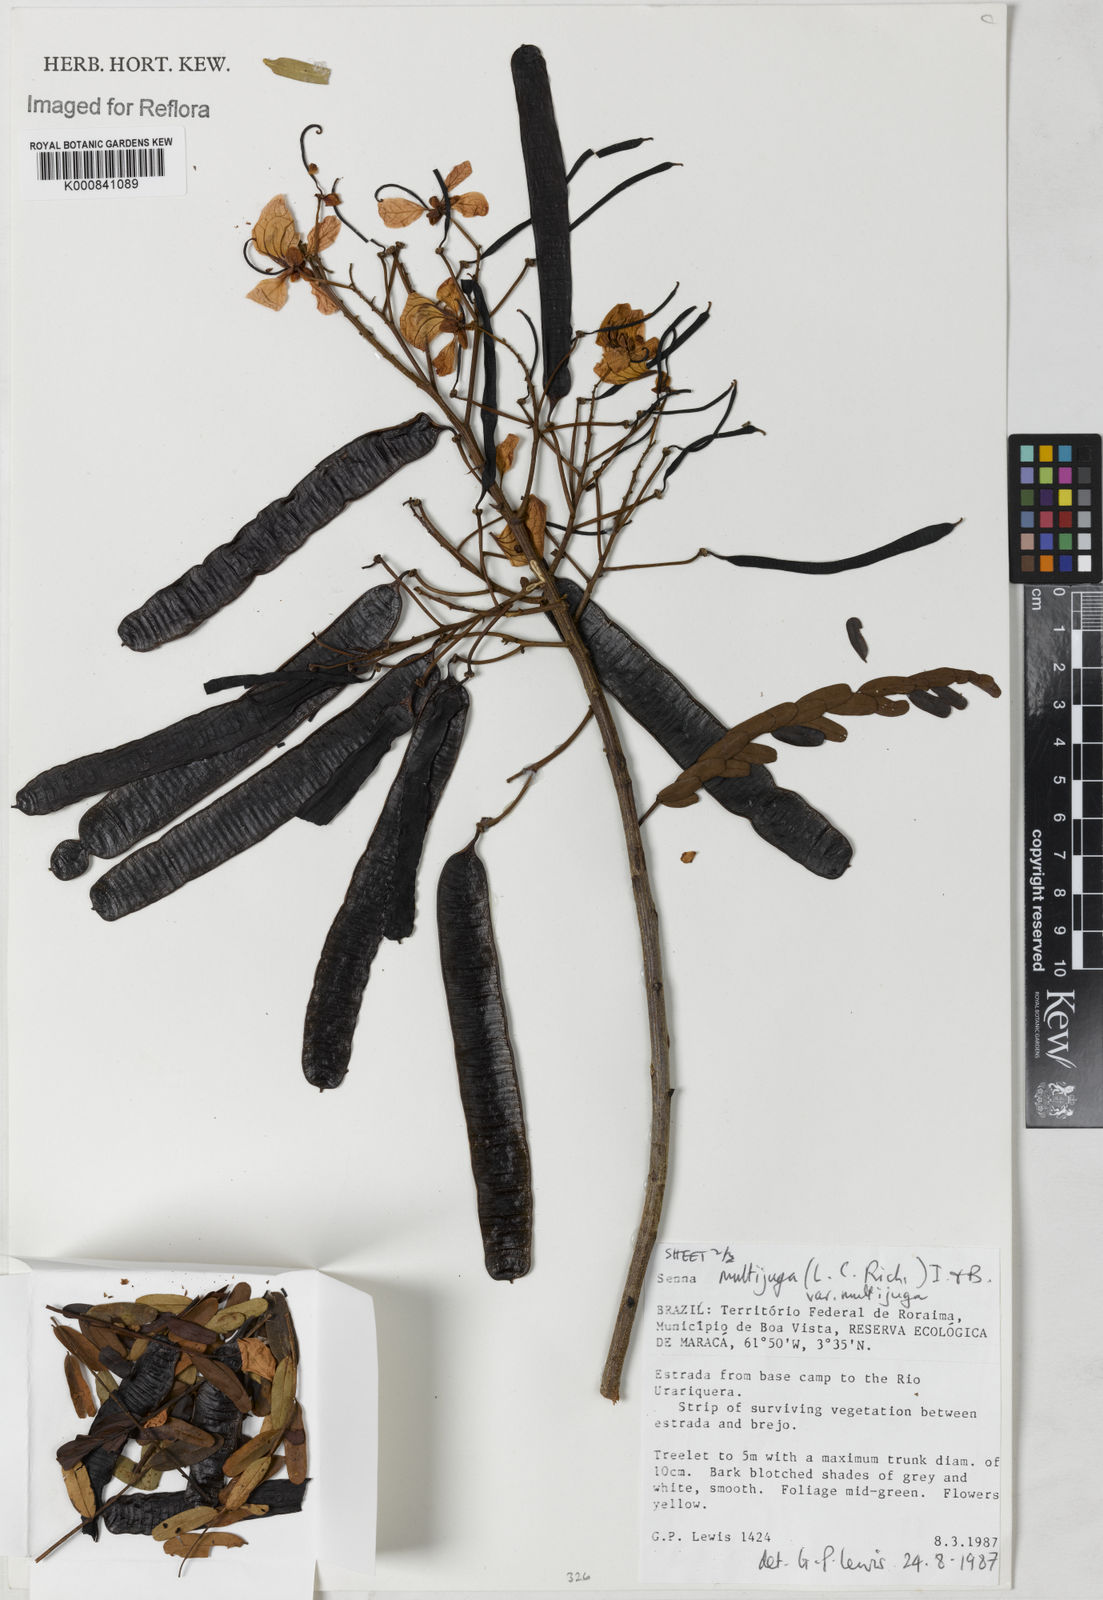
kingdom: Plantae
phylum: Tracheophyta
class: Magnoliopsida
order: Fabales
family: Fabaceae
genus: Senna
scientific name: Senna multijuga
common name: False sicklepod
